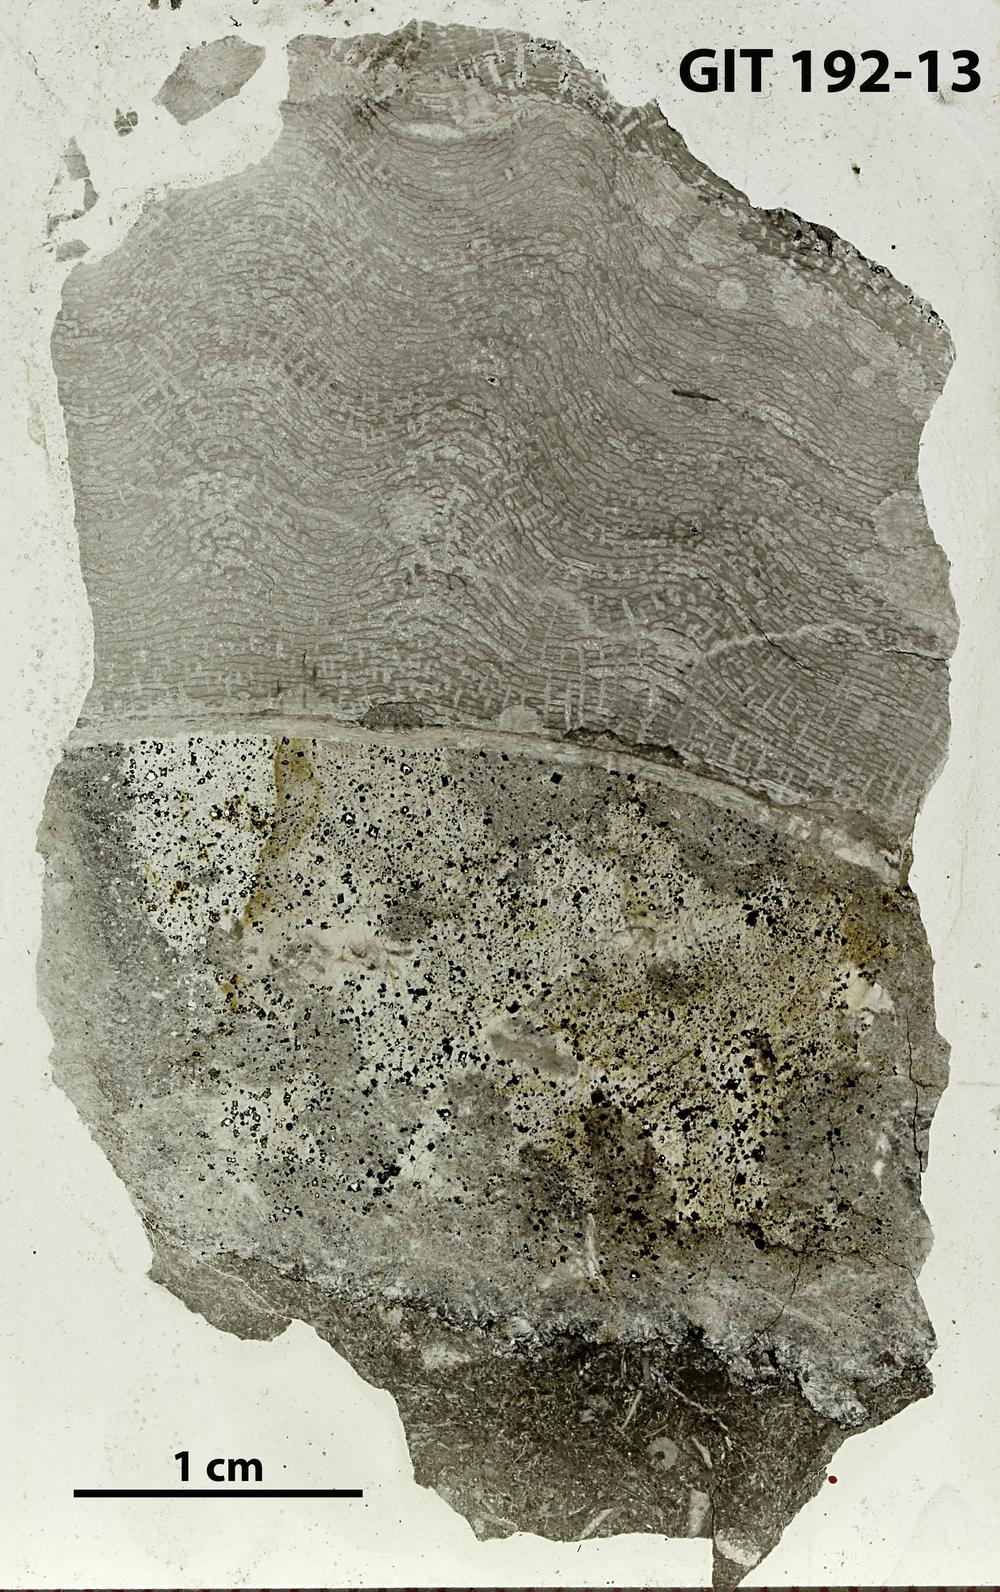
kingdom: Animalia
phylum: Porifera
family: Rosenellidae
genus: Forolinia
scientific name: Forolinia implana
